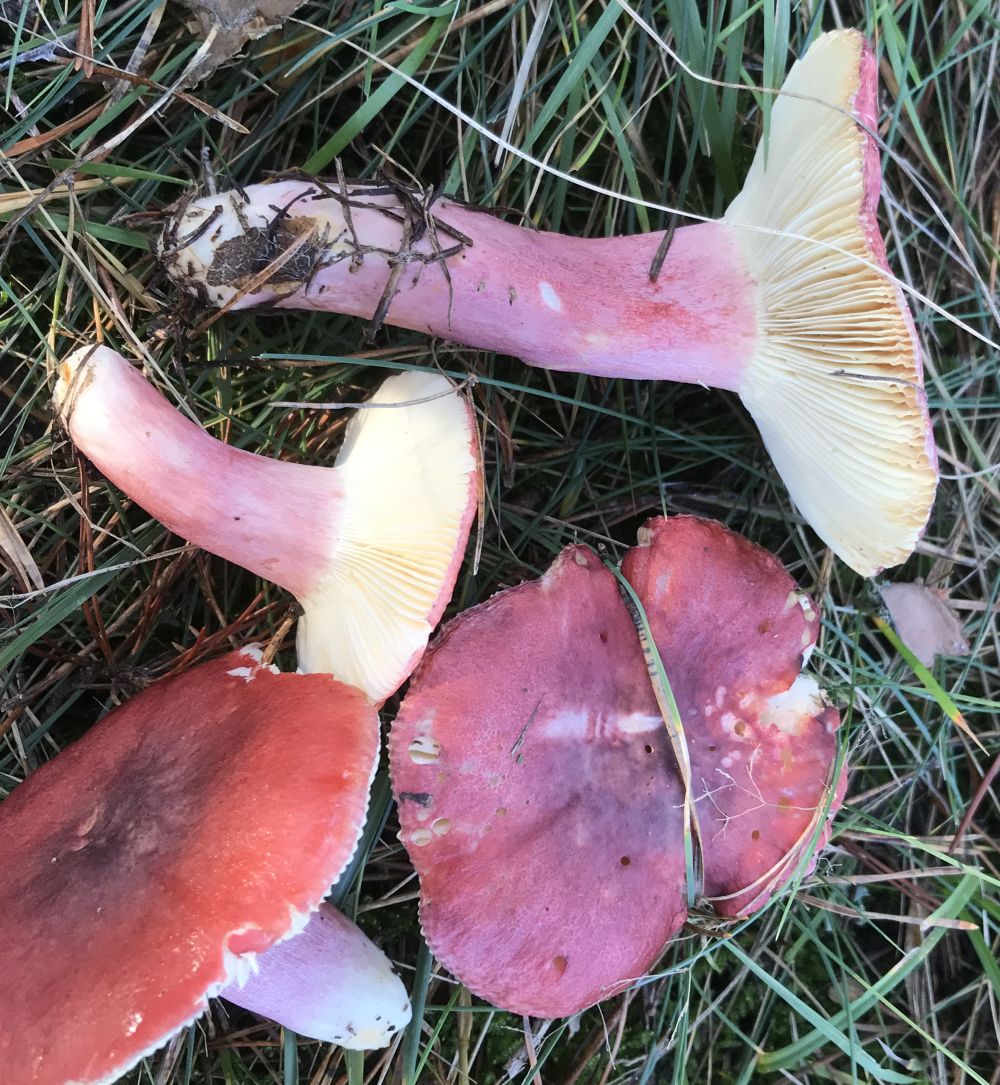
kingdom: Fungi
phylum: Basidiomycota
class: Agaricomycetes
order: Russulales
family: Russulaceae
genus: Russula
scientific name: Russula sardonia
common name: citronbladet skørhat
